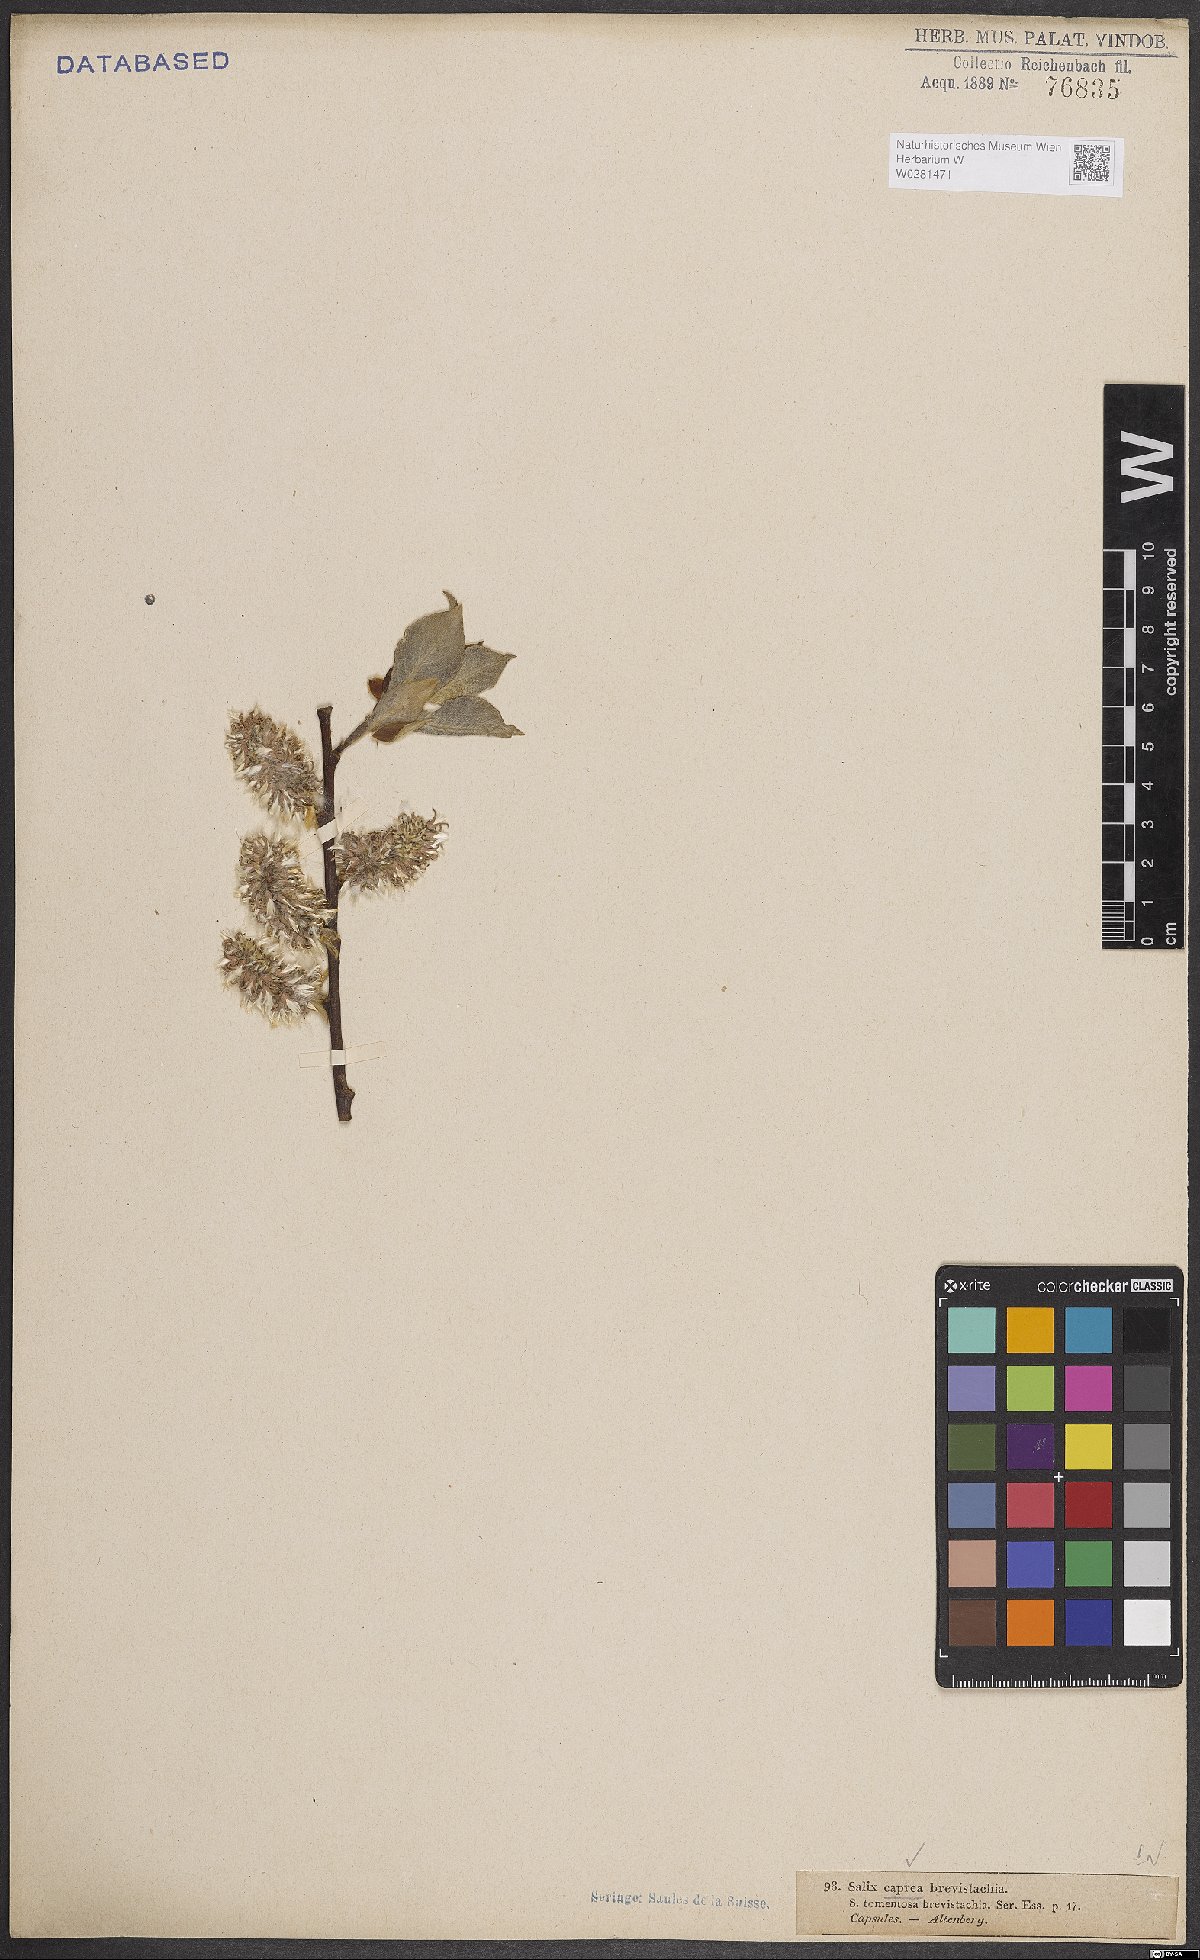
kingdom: Plantae
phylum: Tracheophyta
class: Magnoliopsida
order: Malpighiales
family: Salicaceae
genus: Salix
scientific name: Salix caprea
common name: Goat willow
